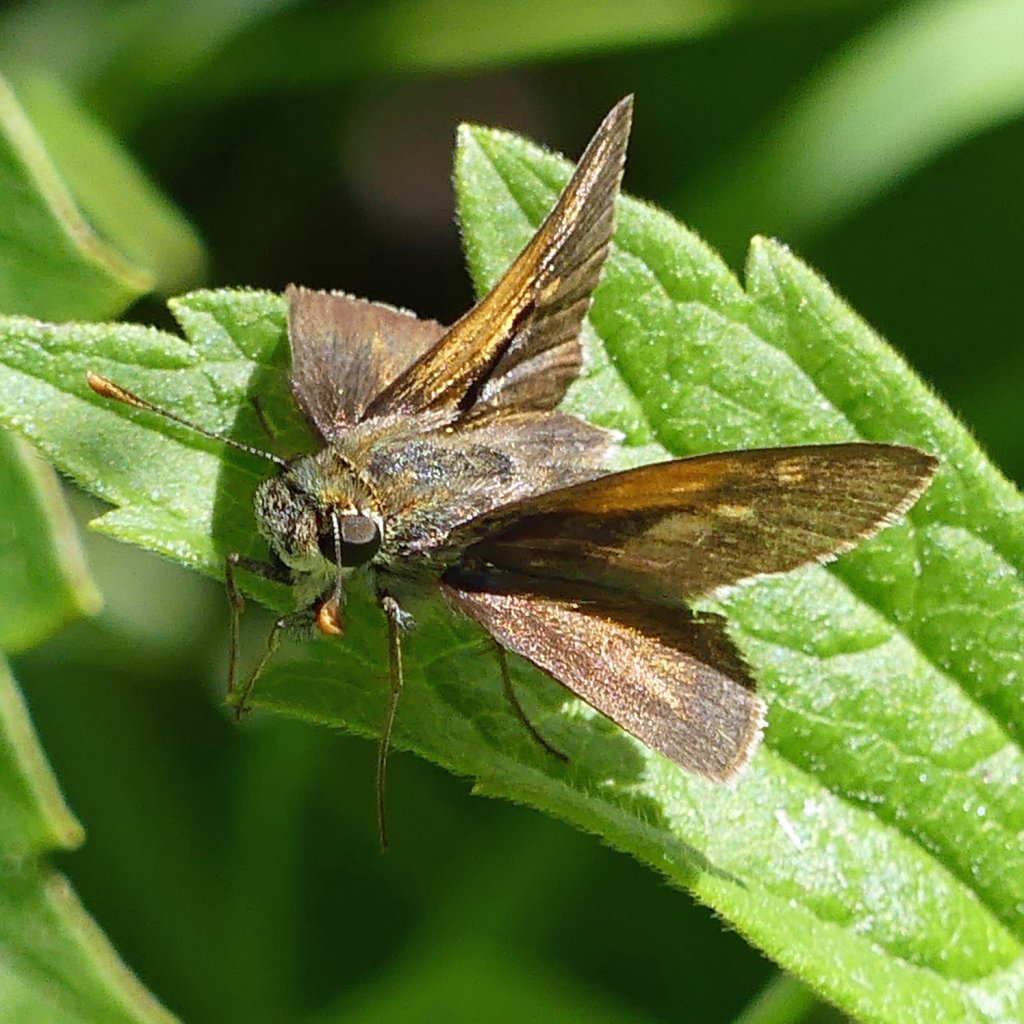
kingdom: Animalia
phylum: Arthropoda
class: Insecta
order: Lepidoptera
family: Hesperiidae
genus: Polites
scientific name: Polites
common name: Crossline Skipper
